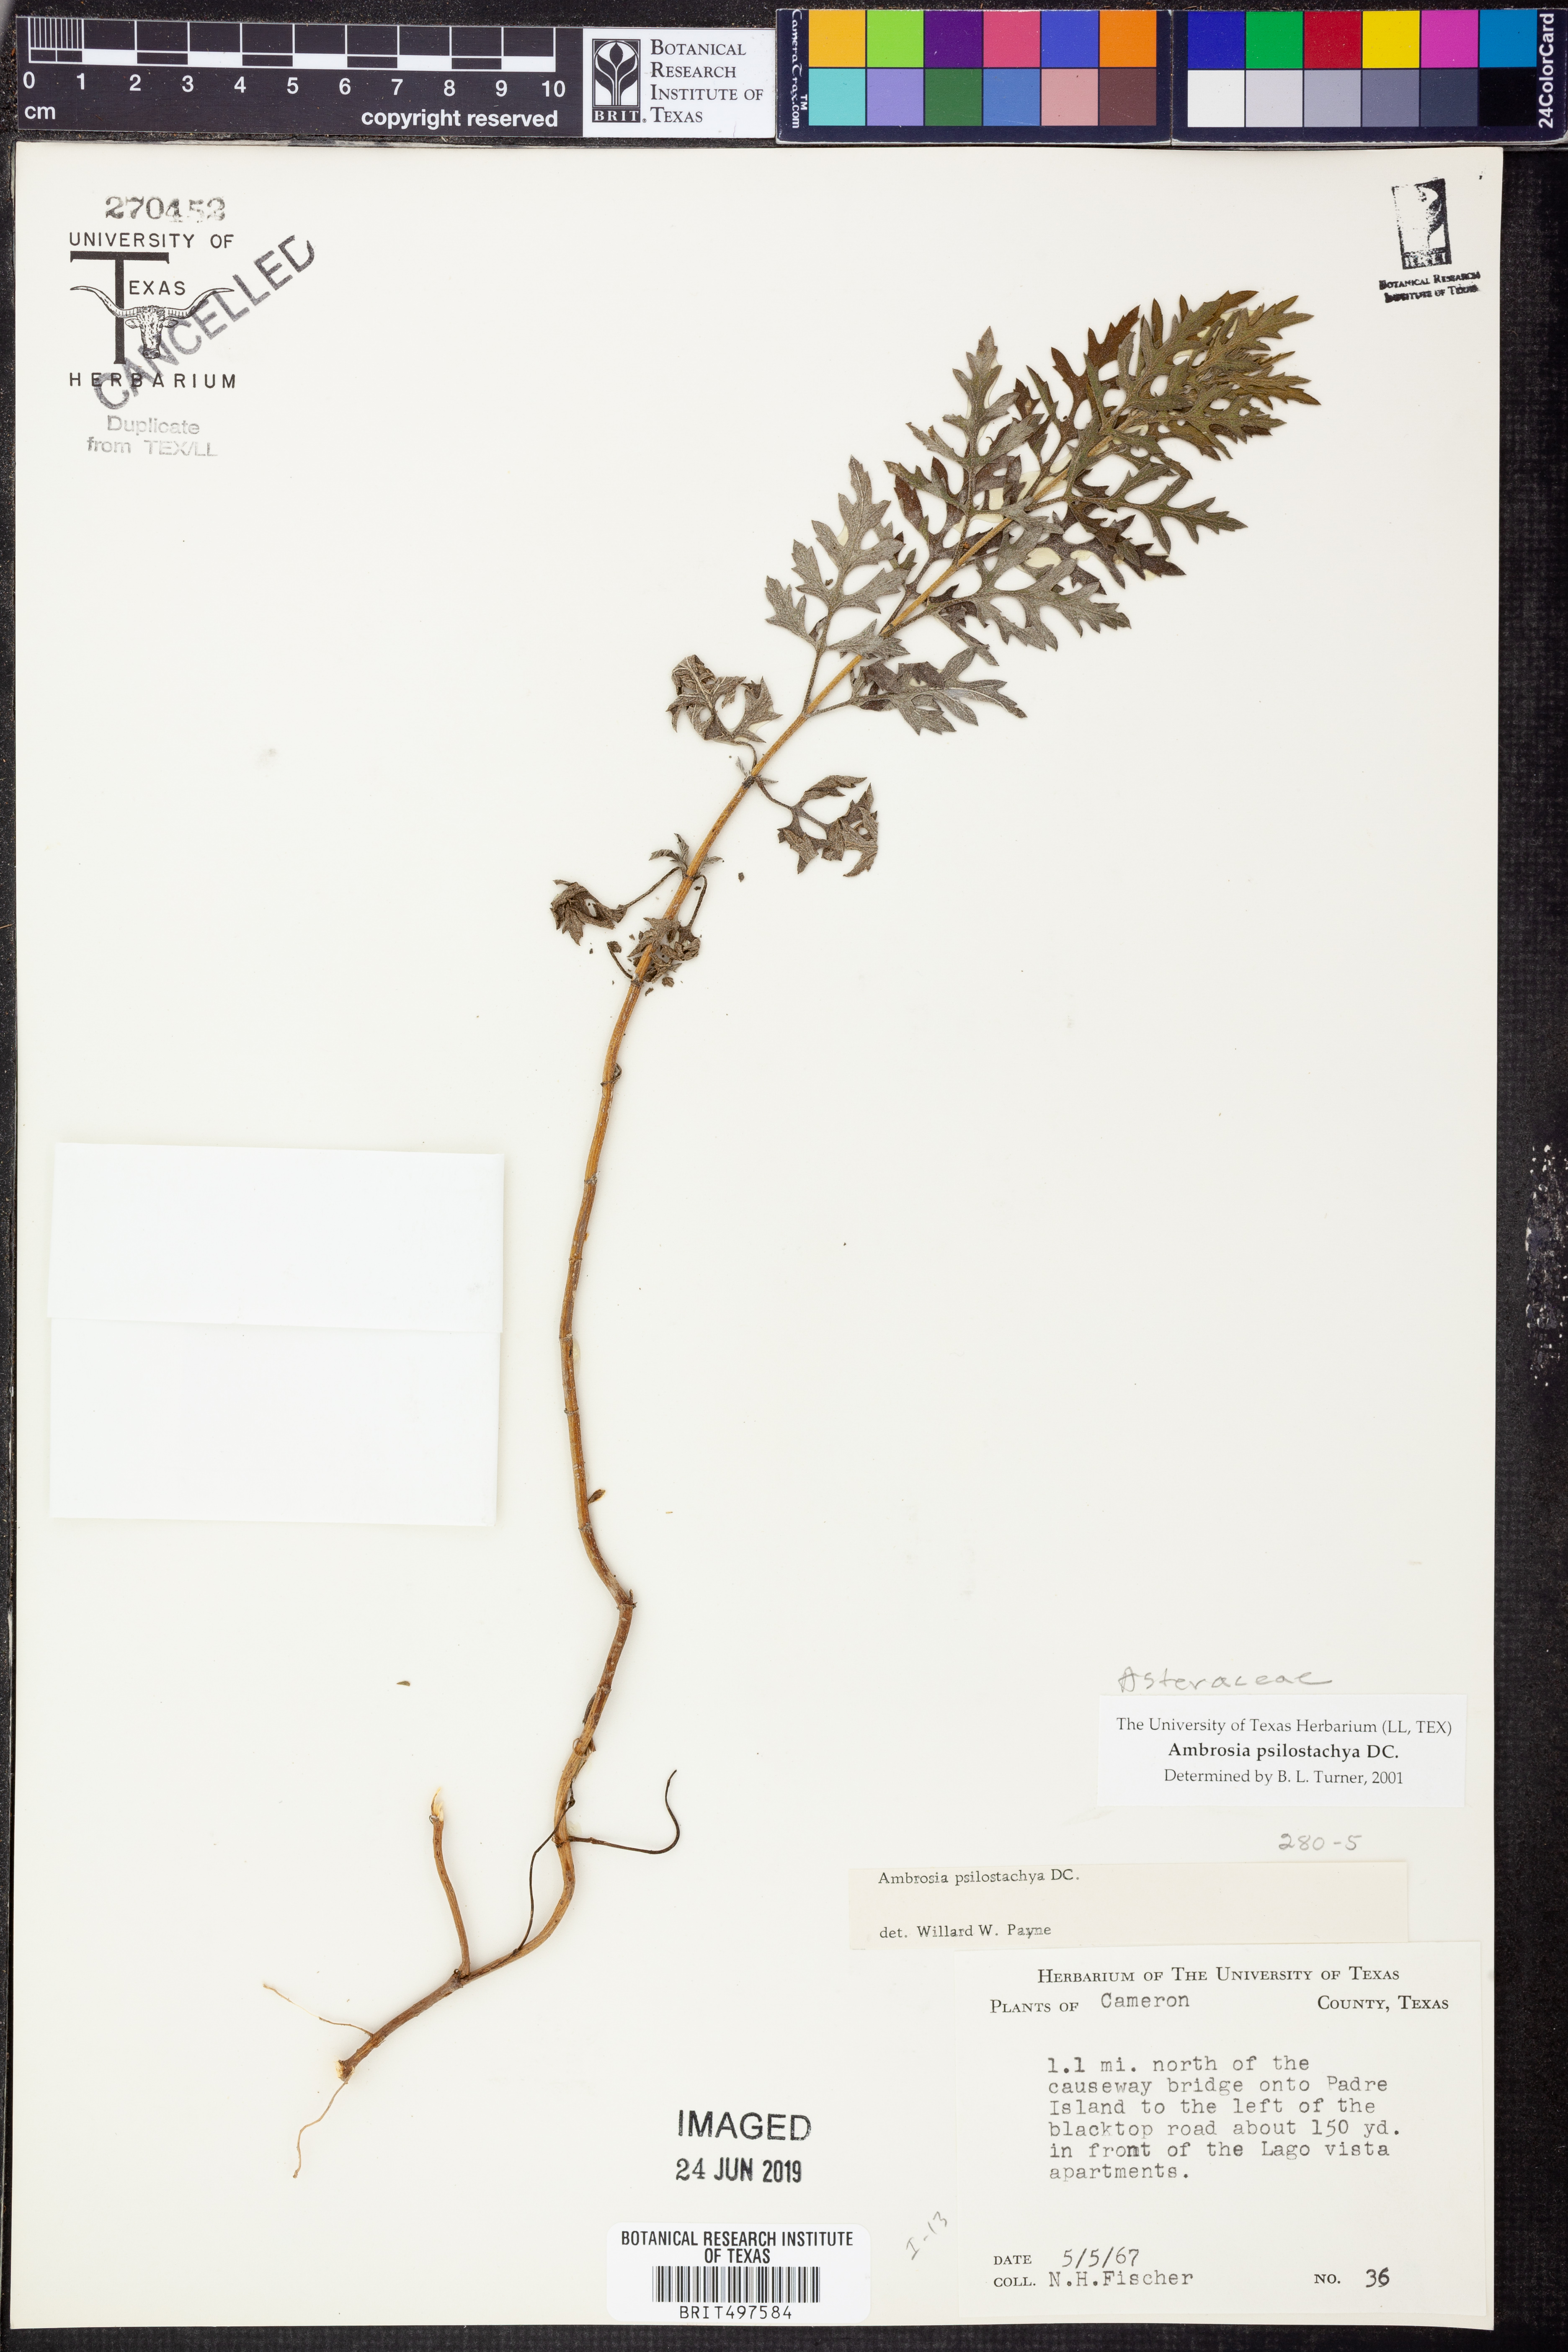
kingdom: Plantae
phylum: Tracheophyta
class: Magnoliopsida
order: Asterales
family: Asteraceae
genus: Ambrosia
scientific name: Ambrosia psilostachya
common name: Perennial ragweed
